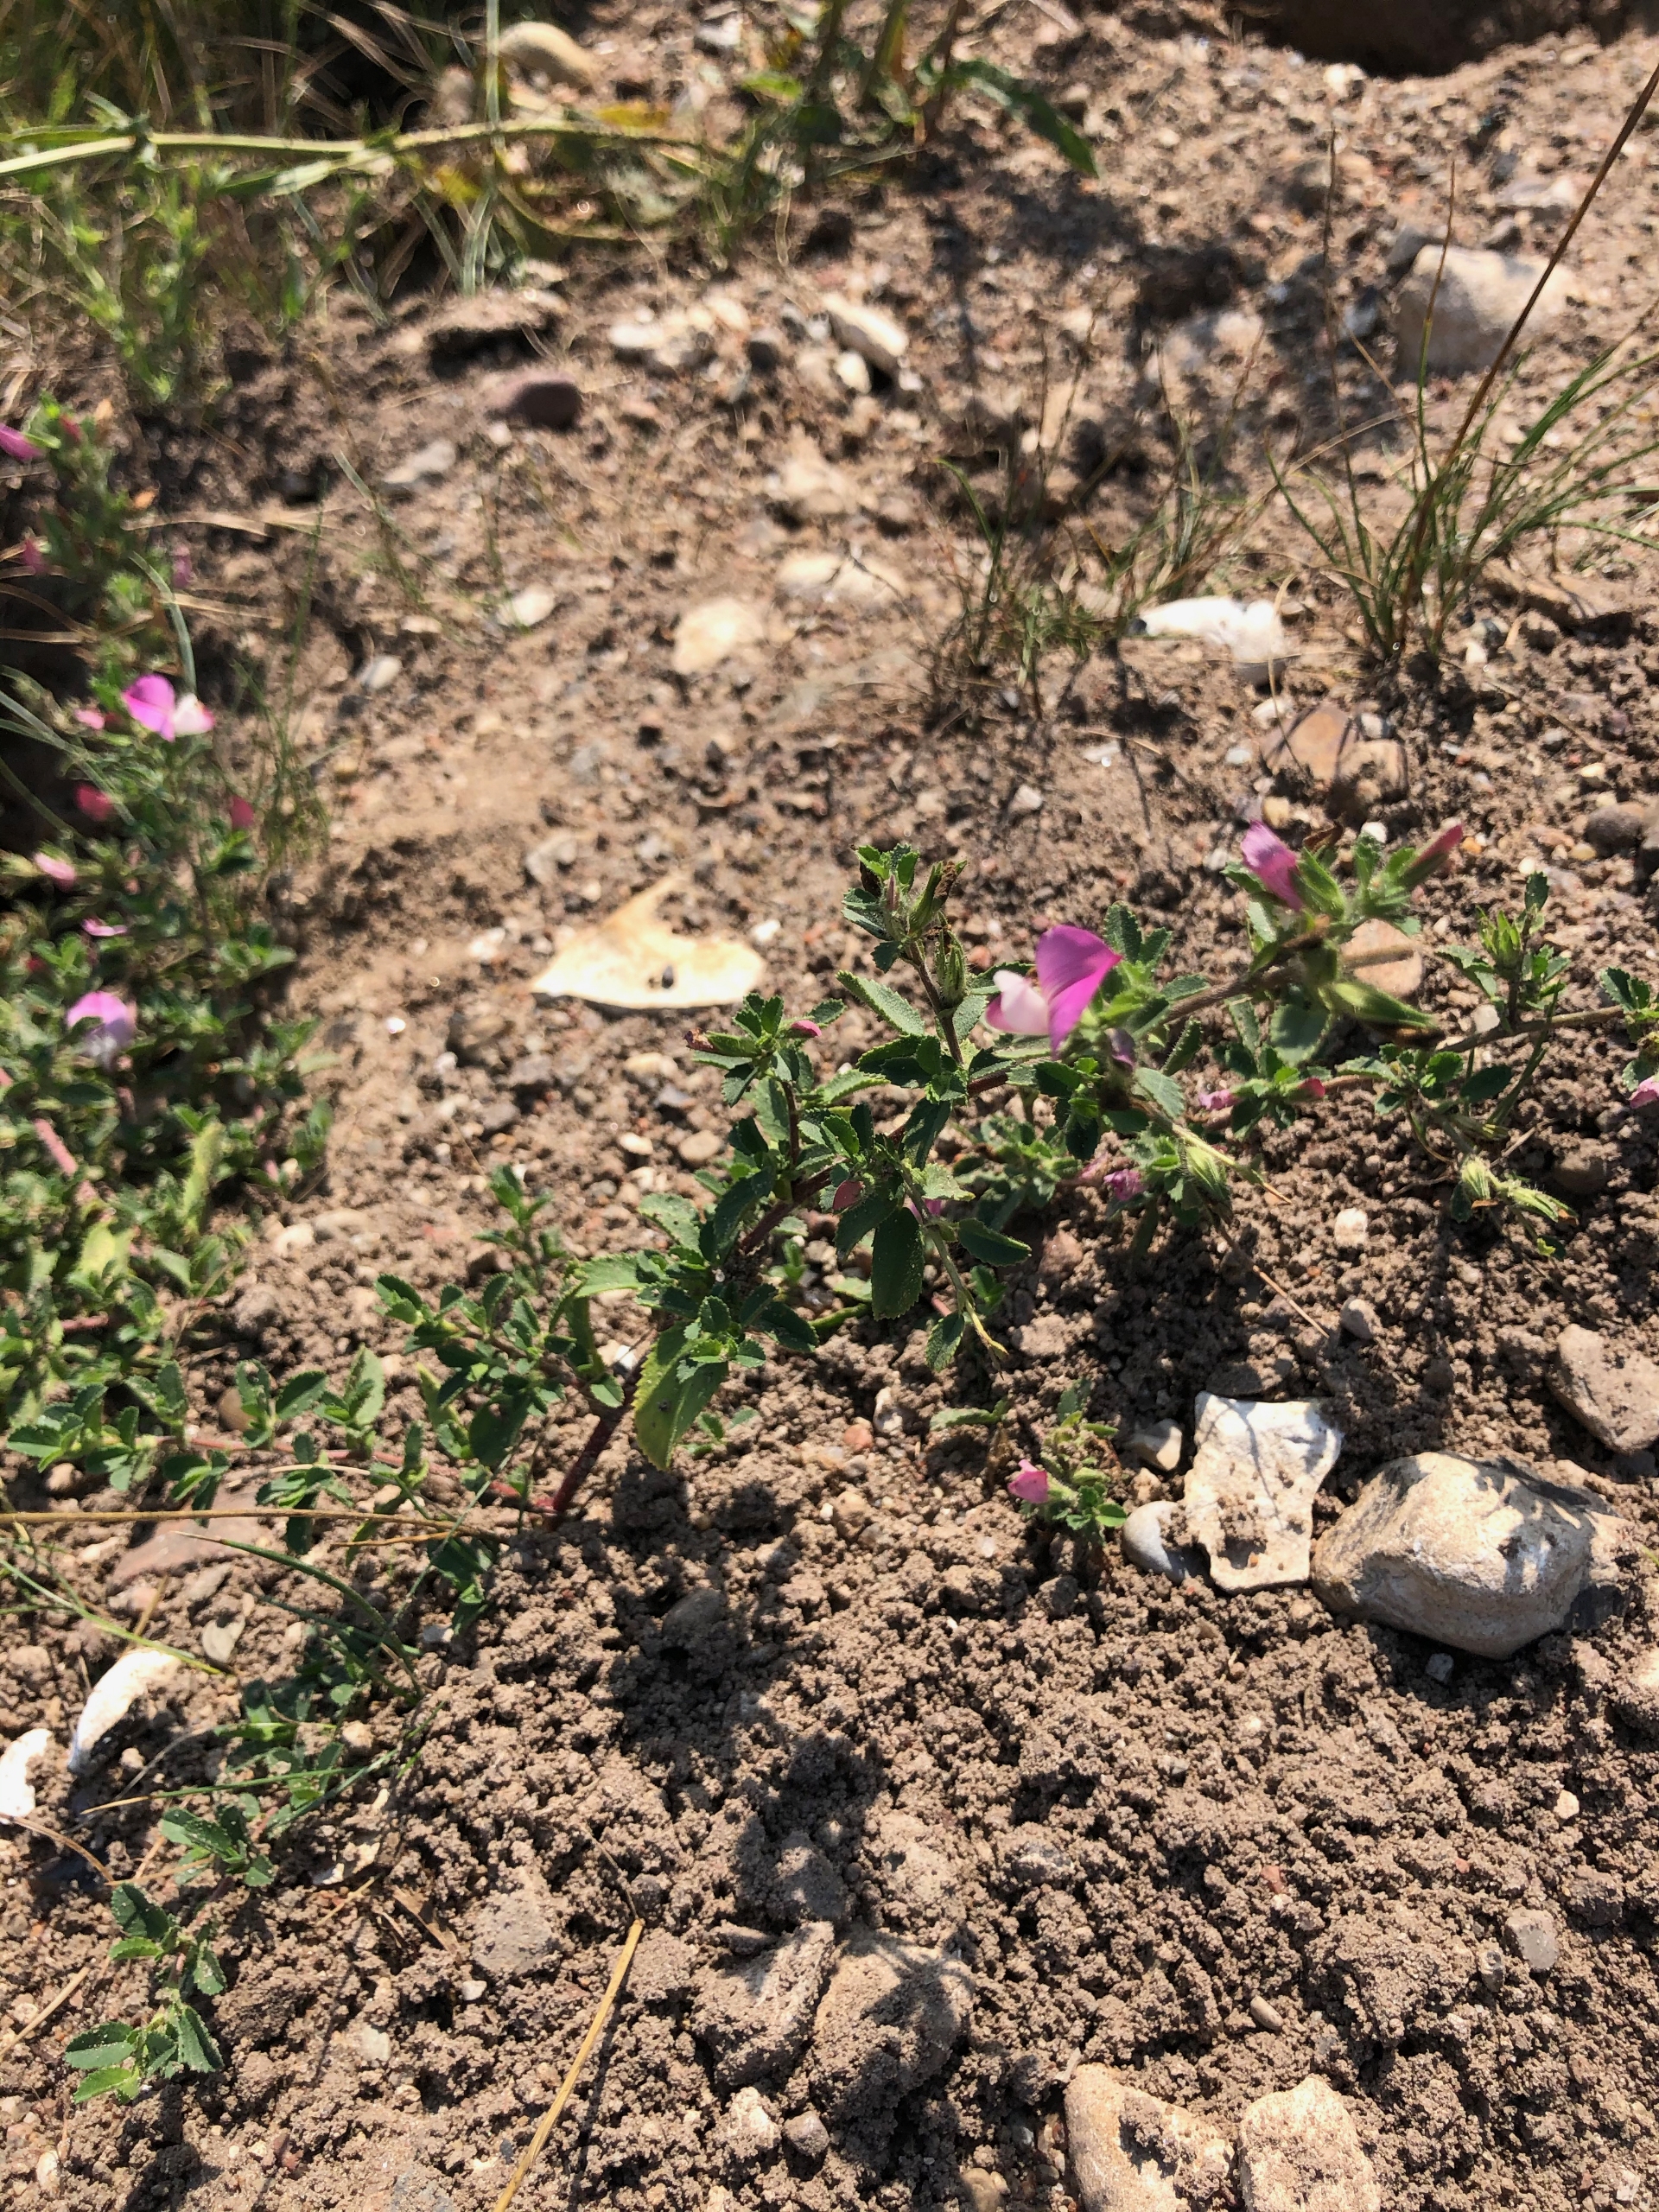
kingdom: Plantae
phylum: Tracheophyta
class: Magnoliopsida
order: Fabales
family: Fabaceae
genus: Ononis
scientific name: Ononis spinosa
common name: Krageklo
